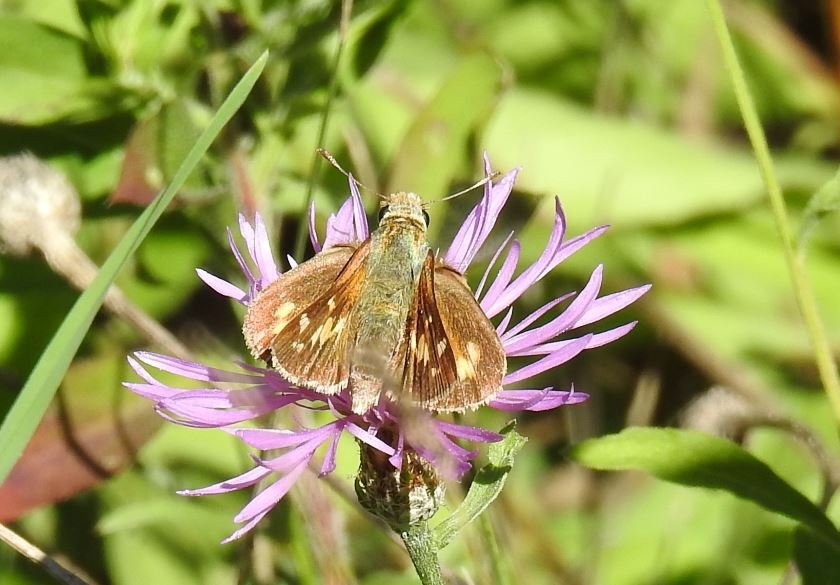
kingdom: Animalia
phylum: Arthropoda
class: Insecta
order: Lepidoptera
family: Hesperiidae
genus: Hesperia
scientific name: Hesperia leonardus
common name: Leonard's Skipper
